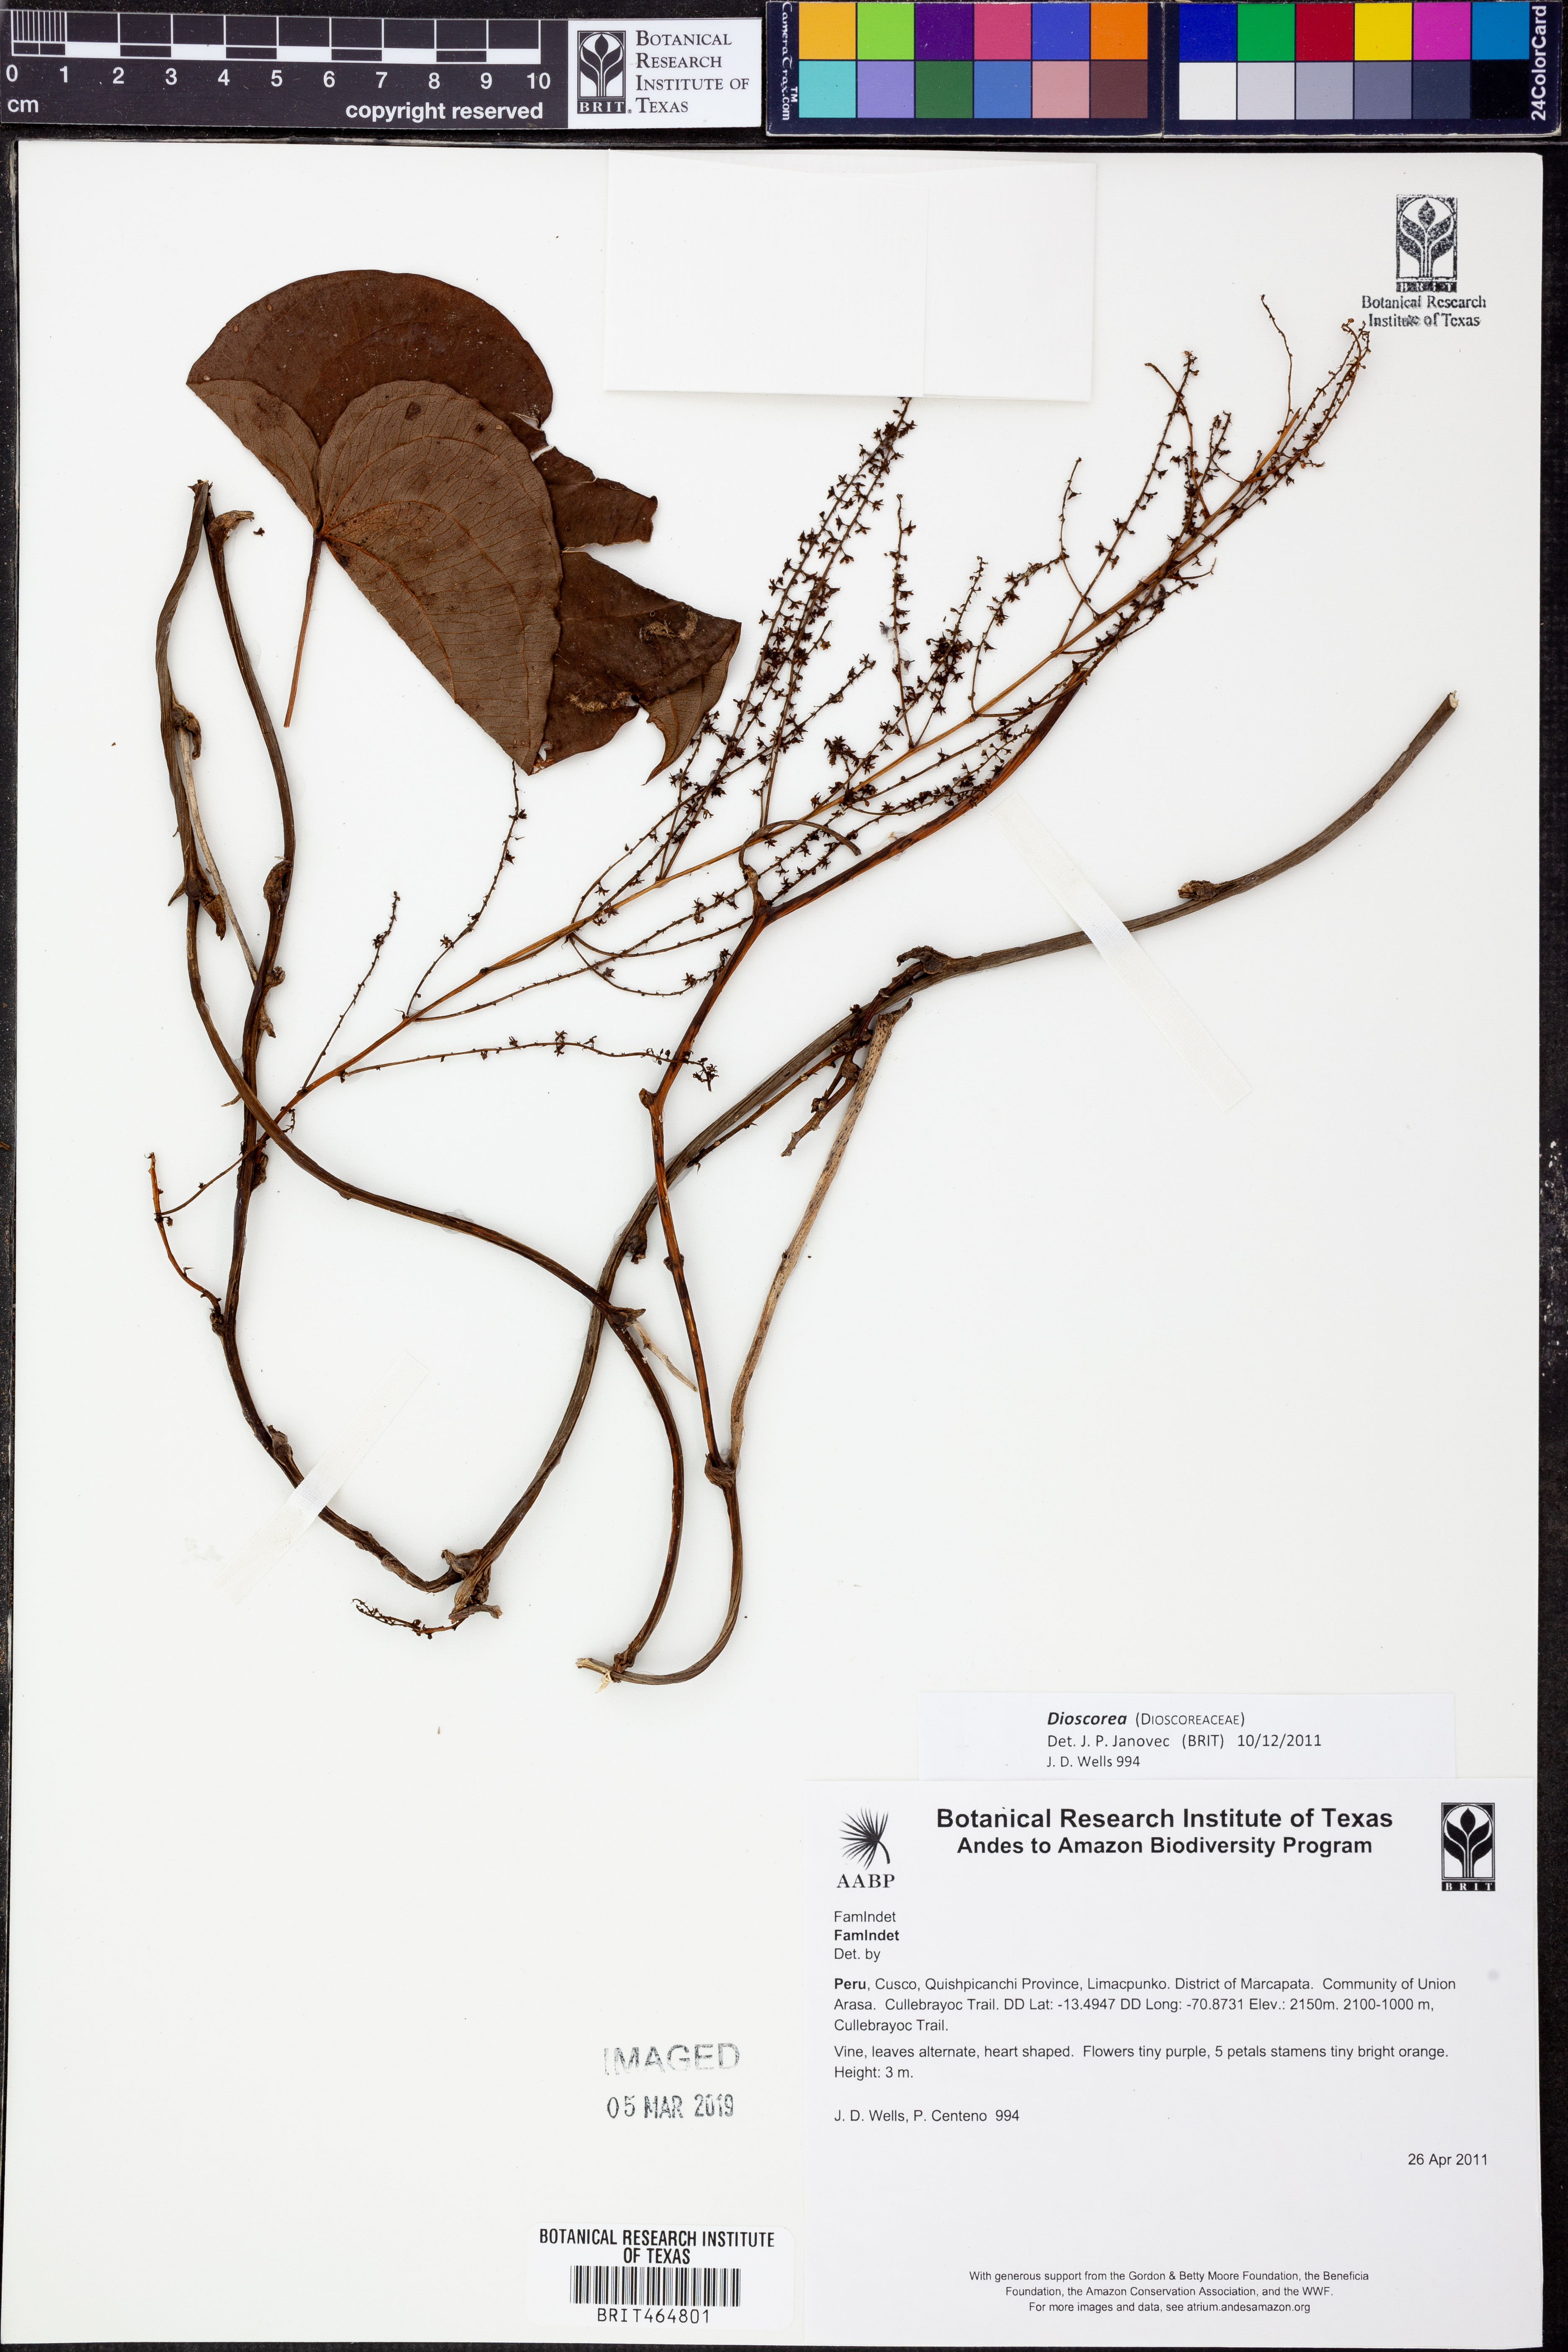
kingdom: Plantae
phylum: Tracheophyta
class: Liliopsida
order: Dioscoreales
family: Dioscoreaceae
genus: Dioscorea
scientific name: Dioscorea
